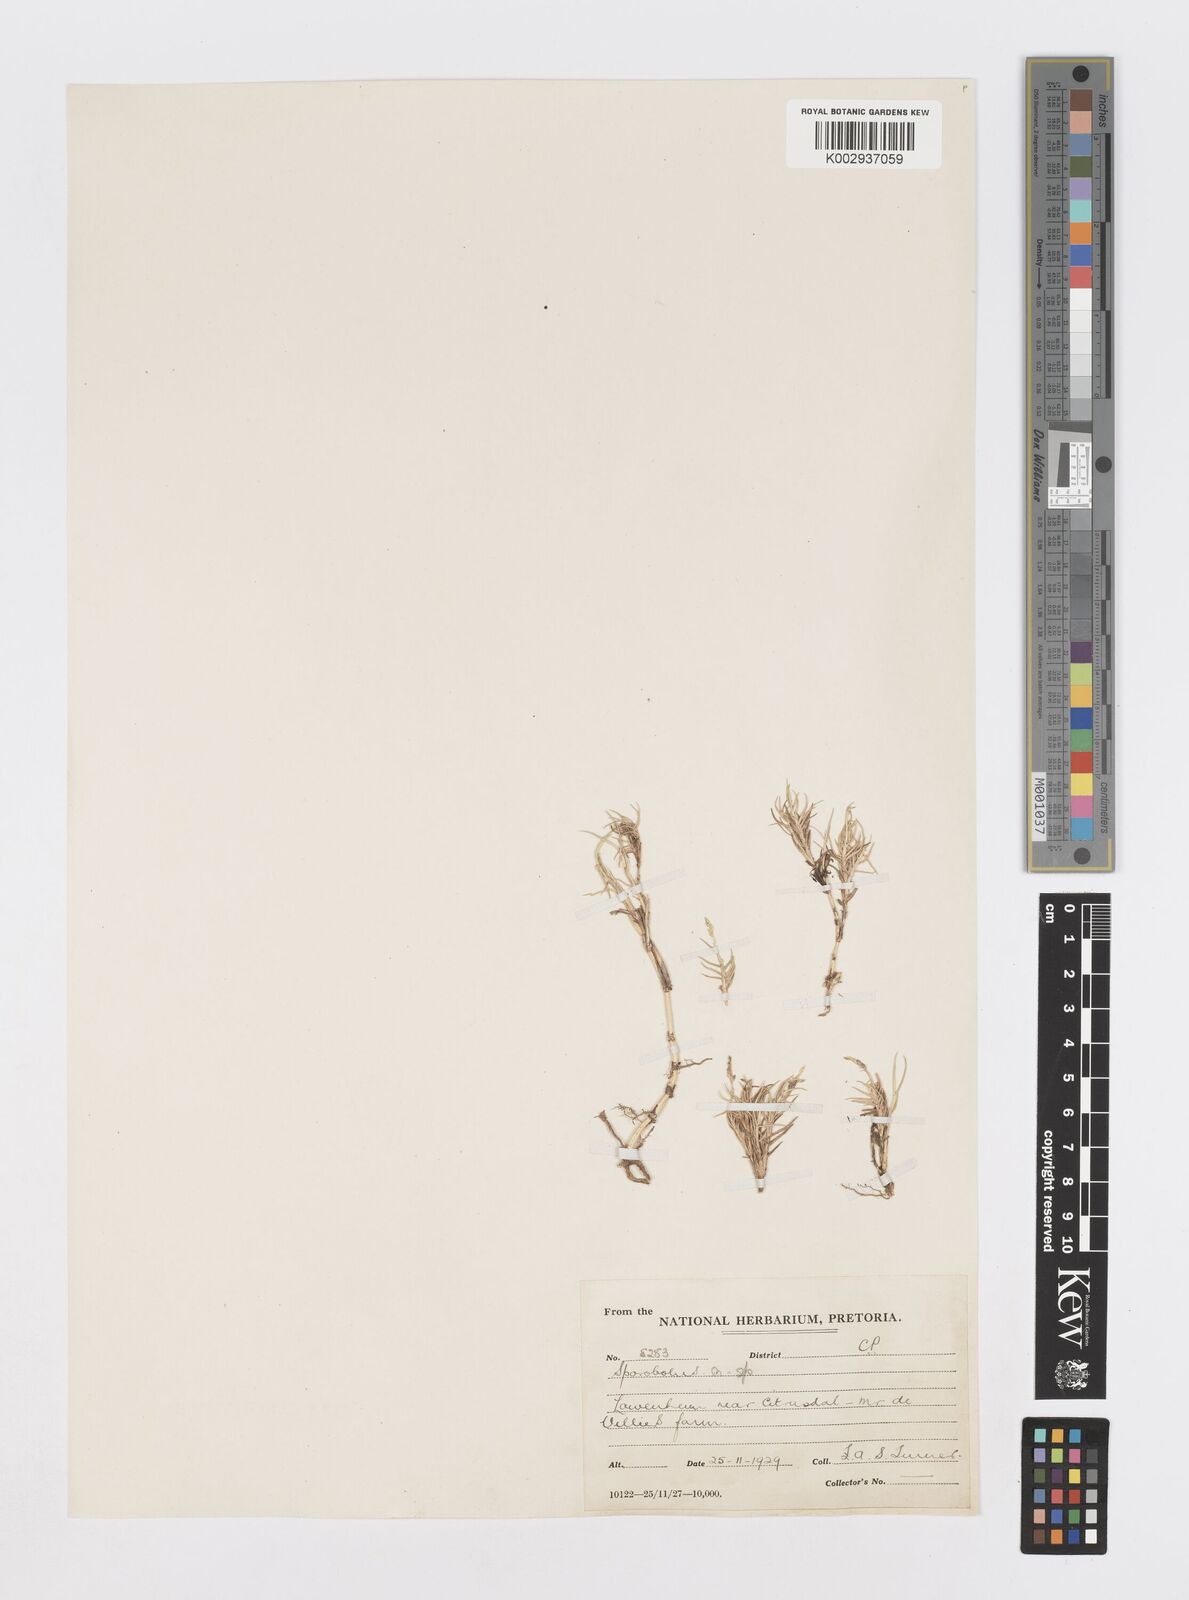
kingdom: Plantae
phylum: Tracheophyta
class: Liliopsida
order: Poales
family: Poaceae
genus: Sporobolus
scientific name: Sporobolus
